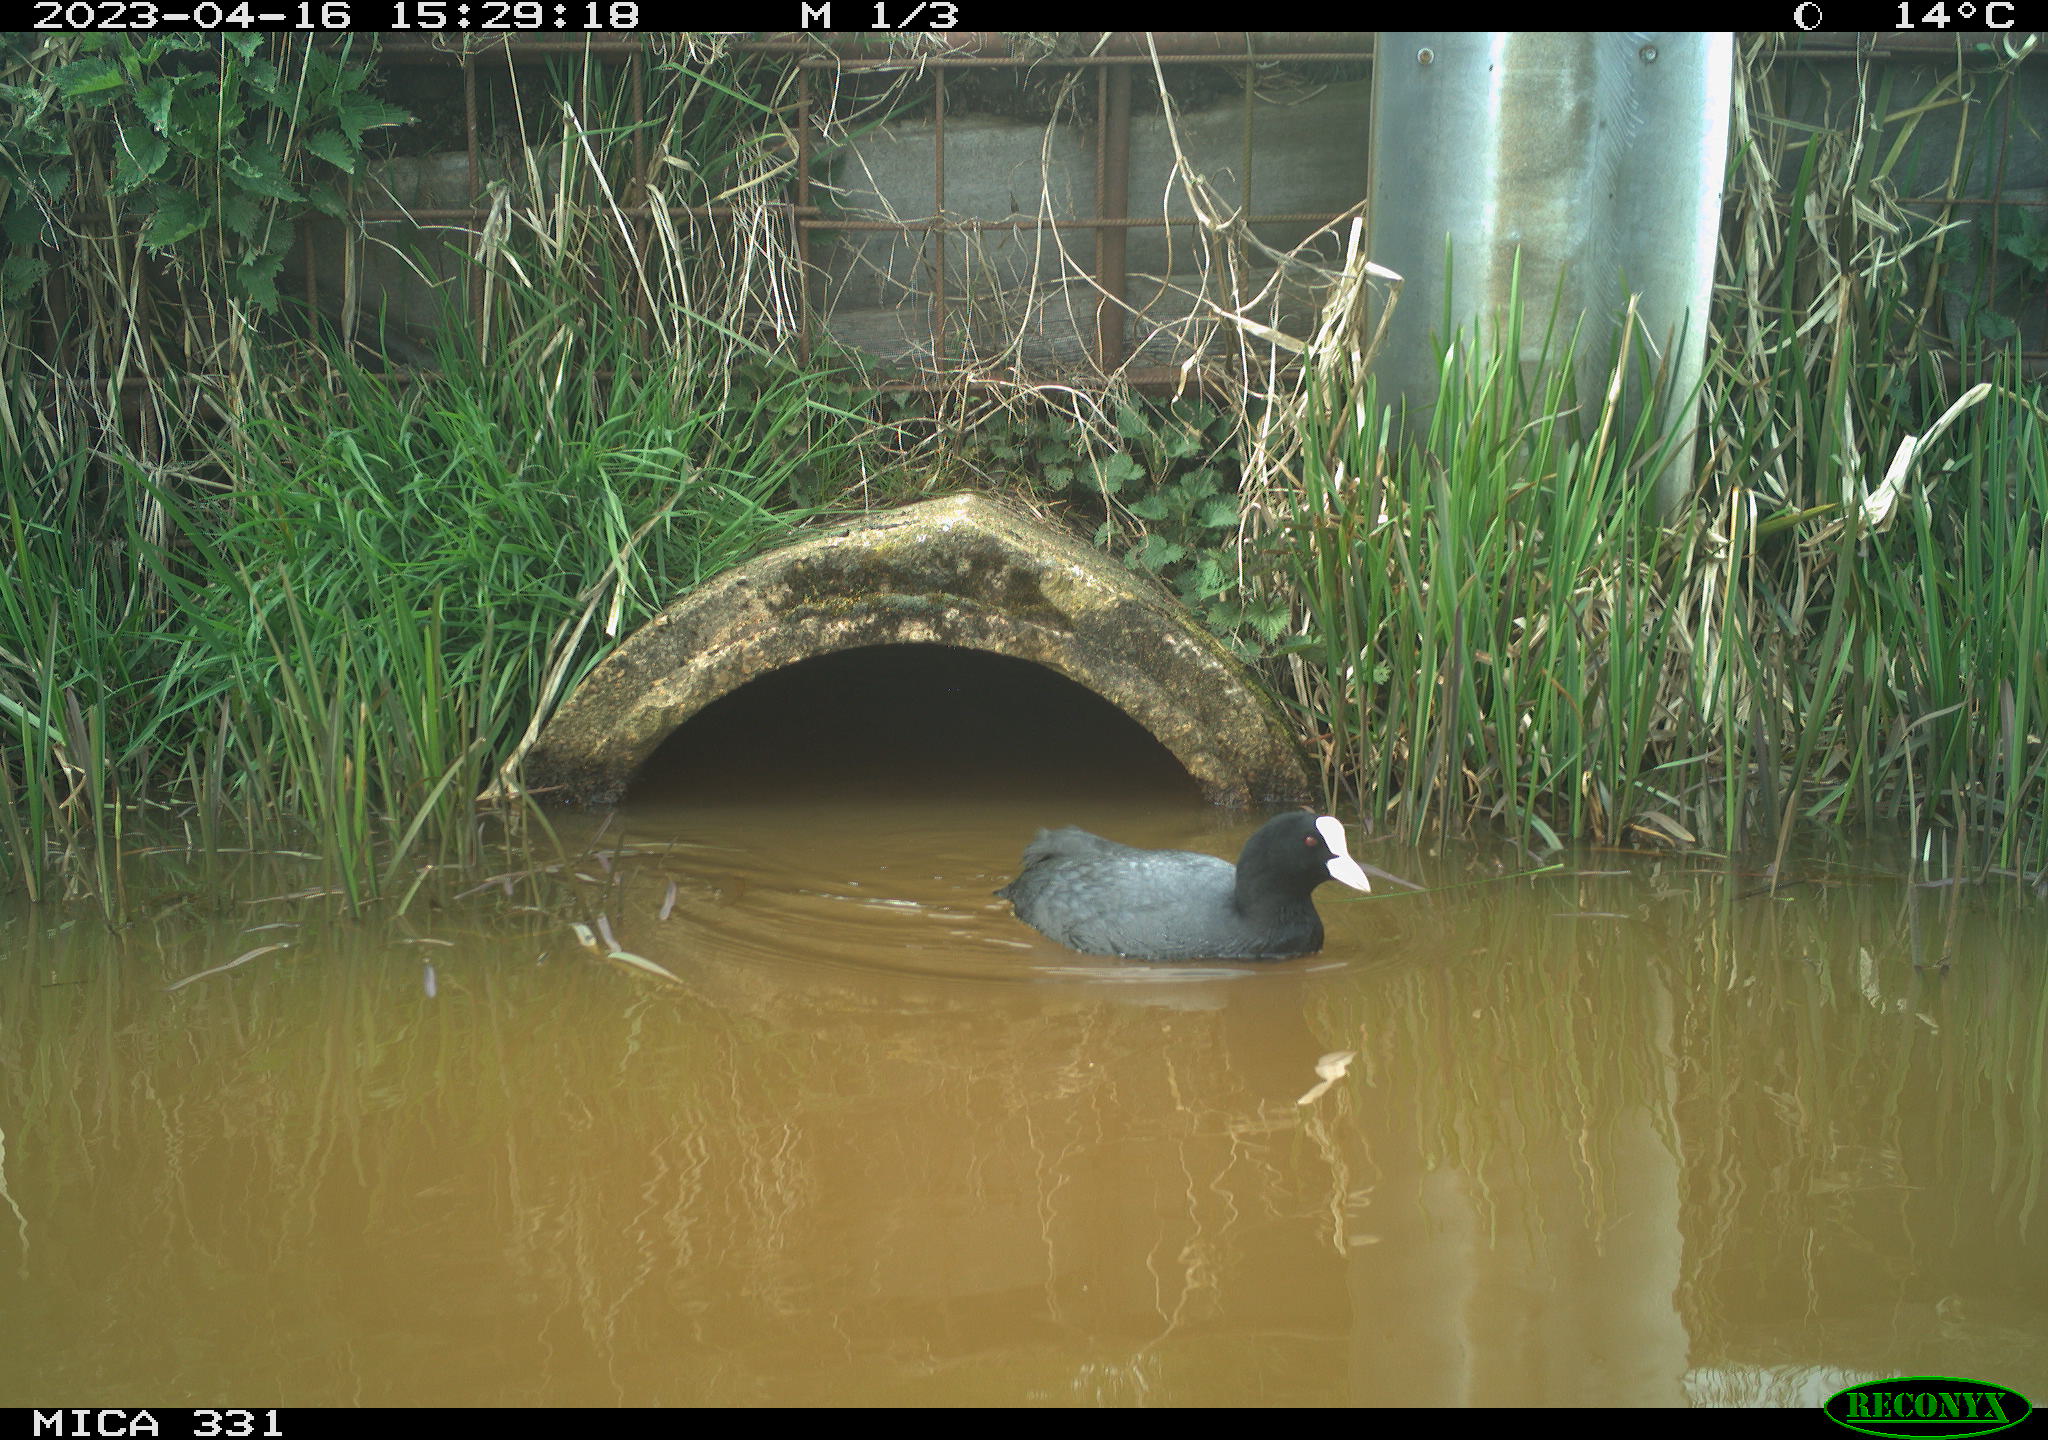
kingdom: Animalia
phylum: Chordata
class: Aves
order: Gruiformes
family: Rallidae
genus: Fulica
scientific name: Fulica atra
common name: Eurasian coot
